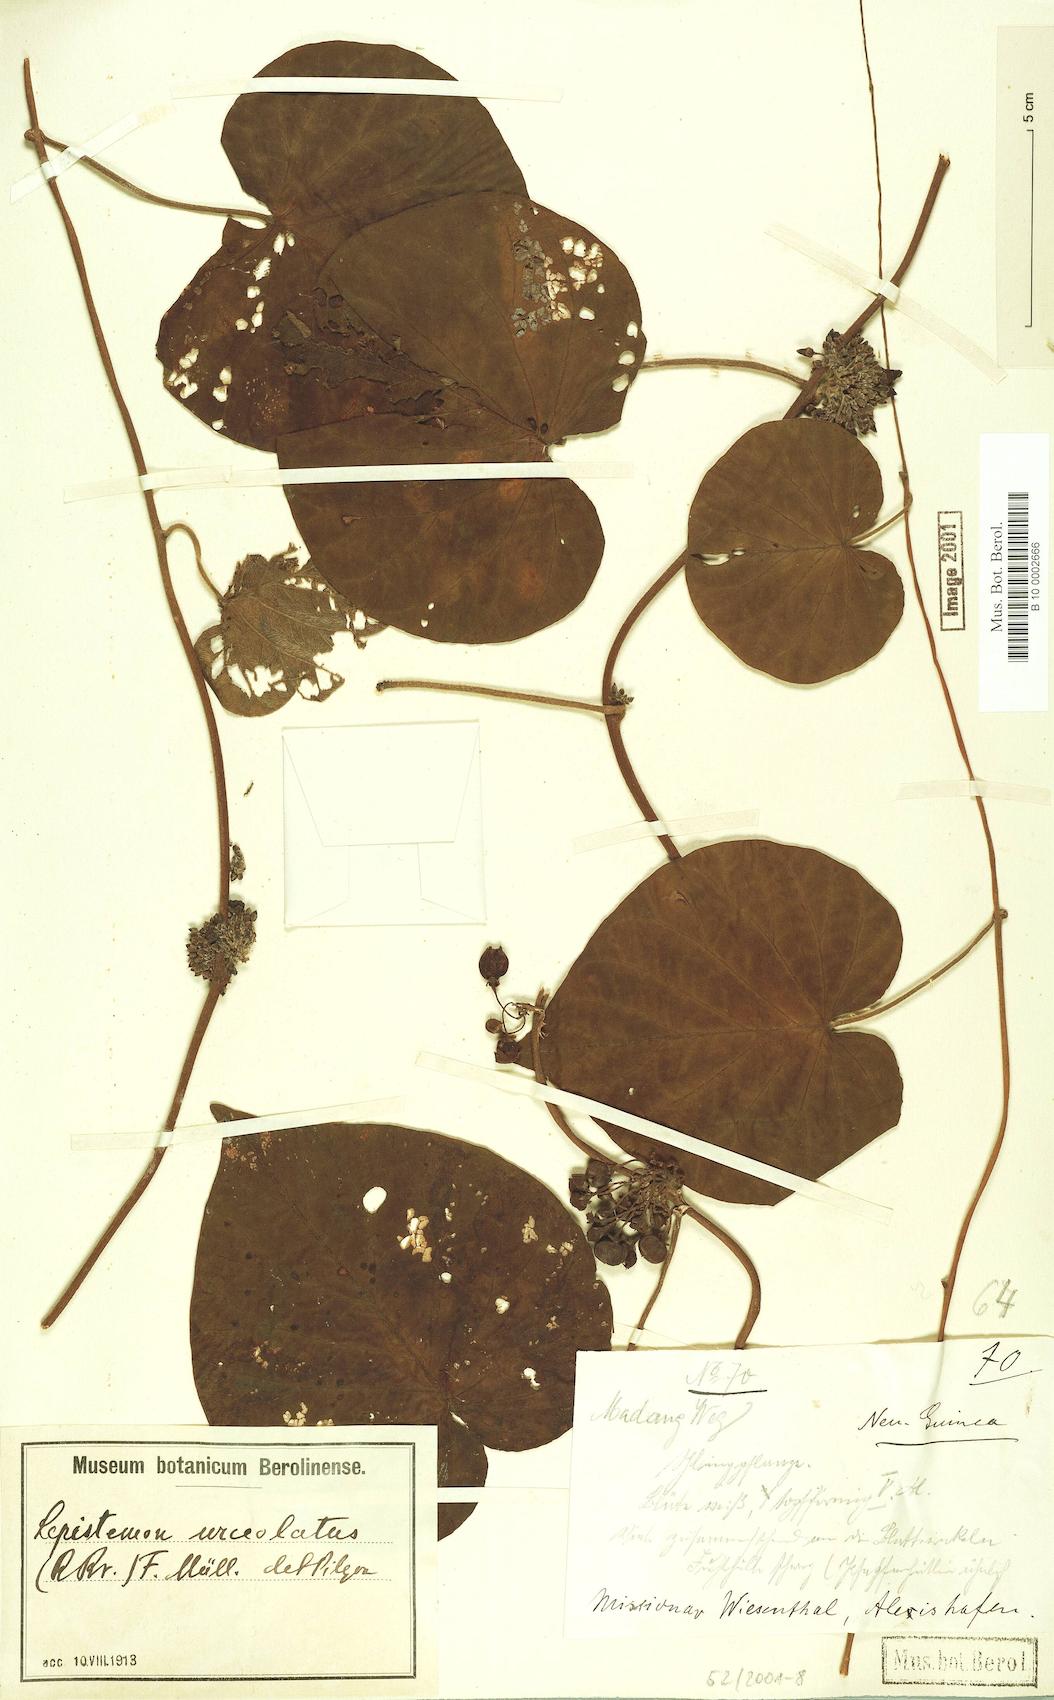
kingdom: Plantae
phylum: Tracheophyta
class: Magnoliopsida
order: Solanales
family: Convolvulaceae
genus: Lepistemon
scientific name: Lepistemon urceolatus
